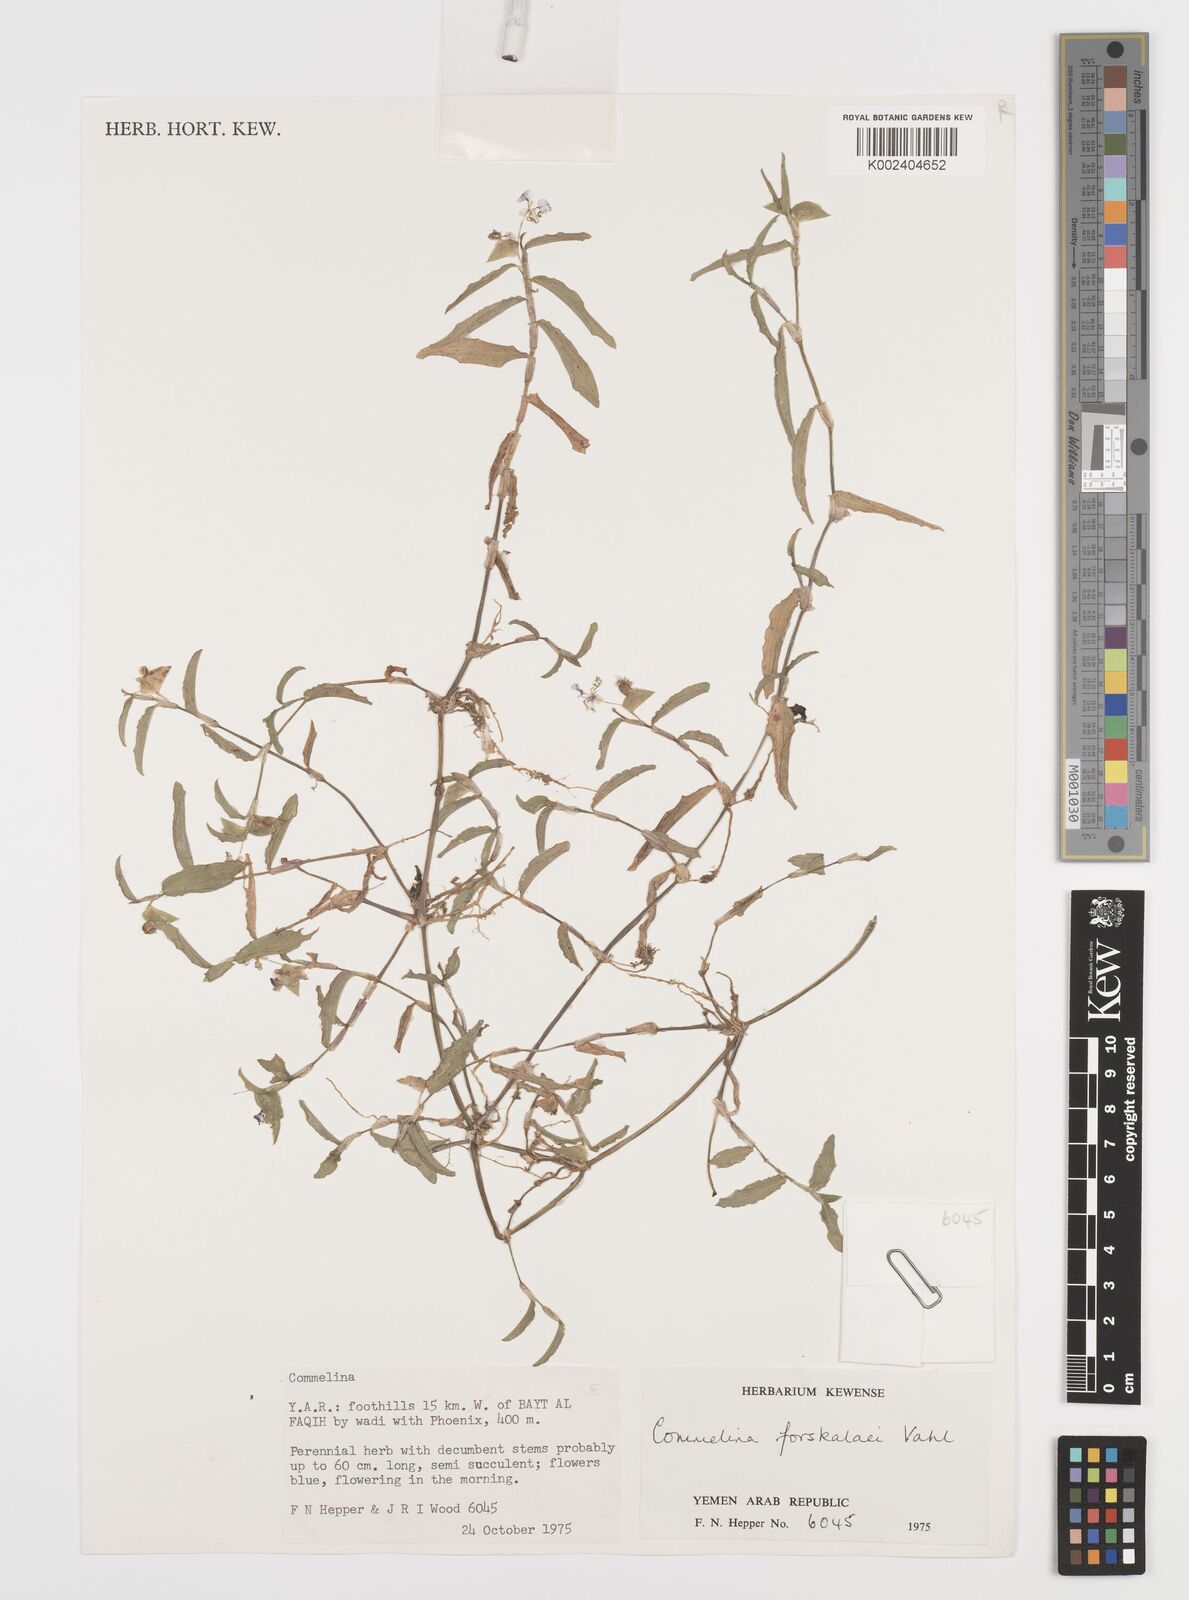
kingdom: Plantae
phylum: Tracheophyta
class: Liliopsida
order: Commelinales
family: Commelinaceae
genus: Commelina
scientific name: Commelina forskaolii
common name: Rat's ear
